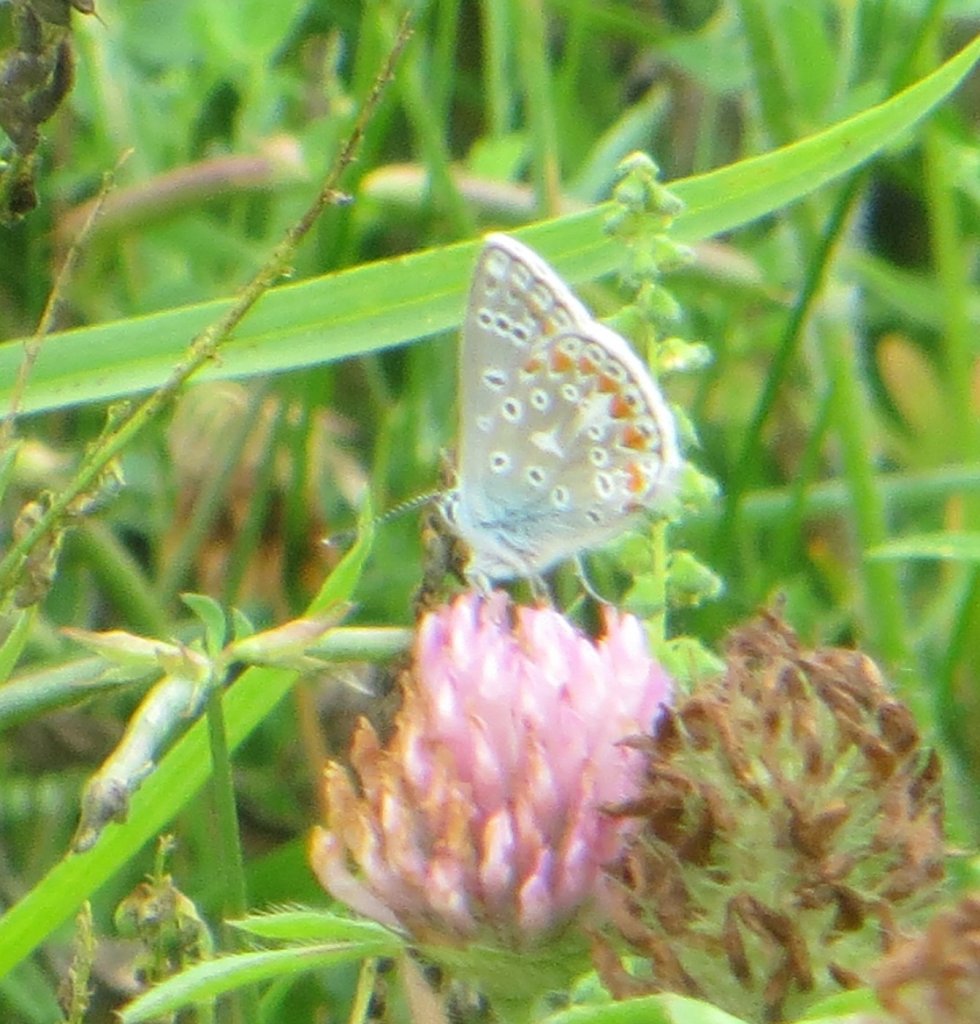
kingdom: Animalia
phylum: Arthropoda
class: Insecta
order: Lepidoptera
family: Lycaenidae
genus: Polyommatus
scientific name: Polyommatus icarus
